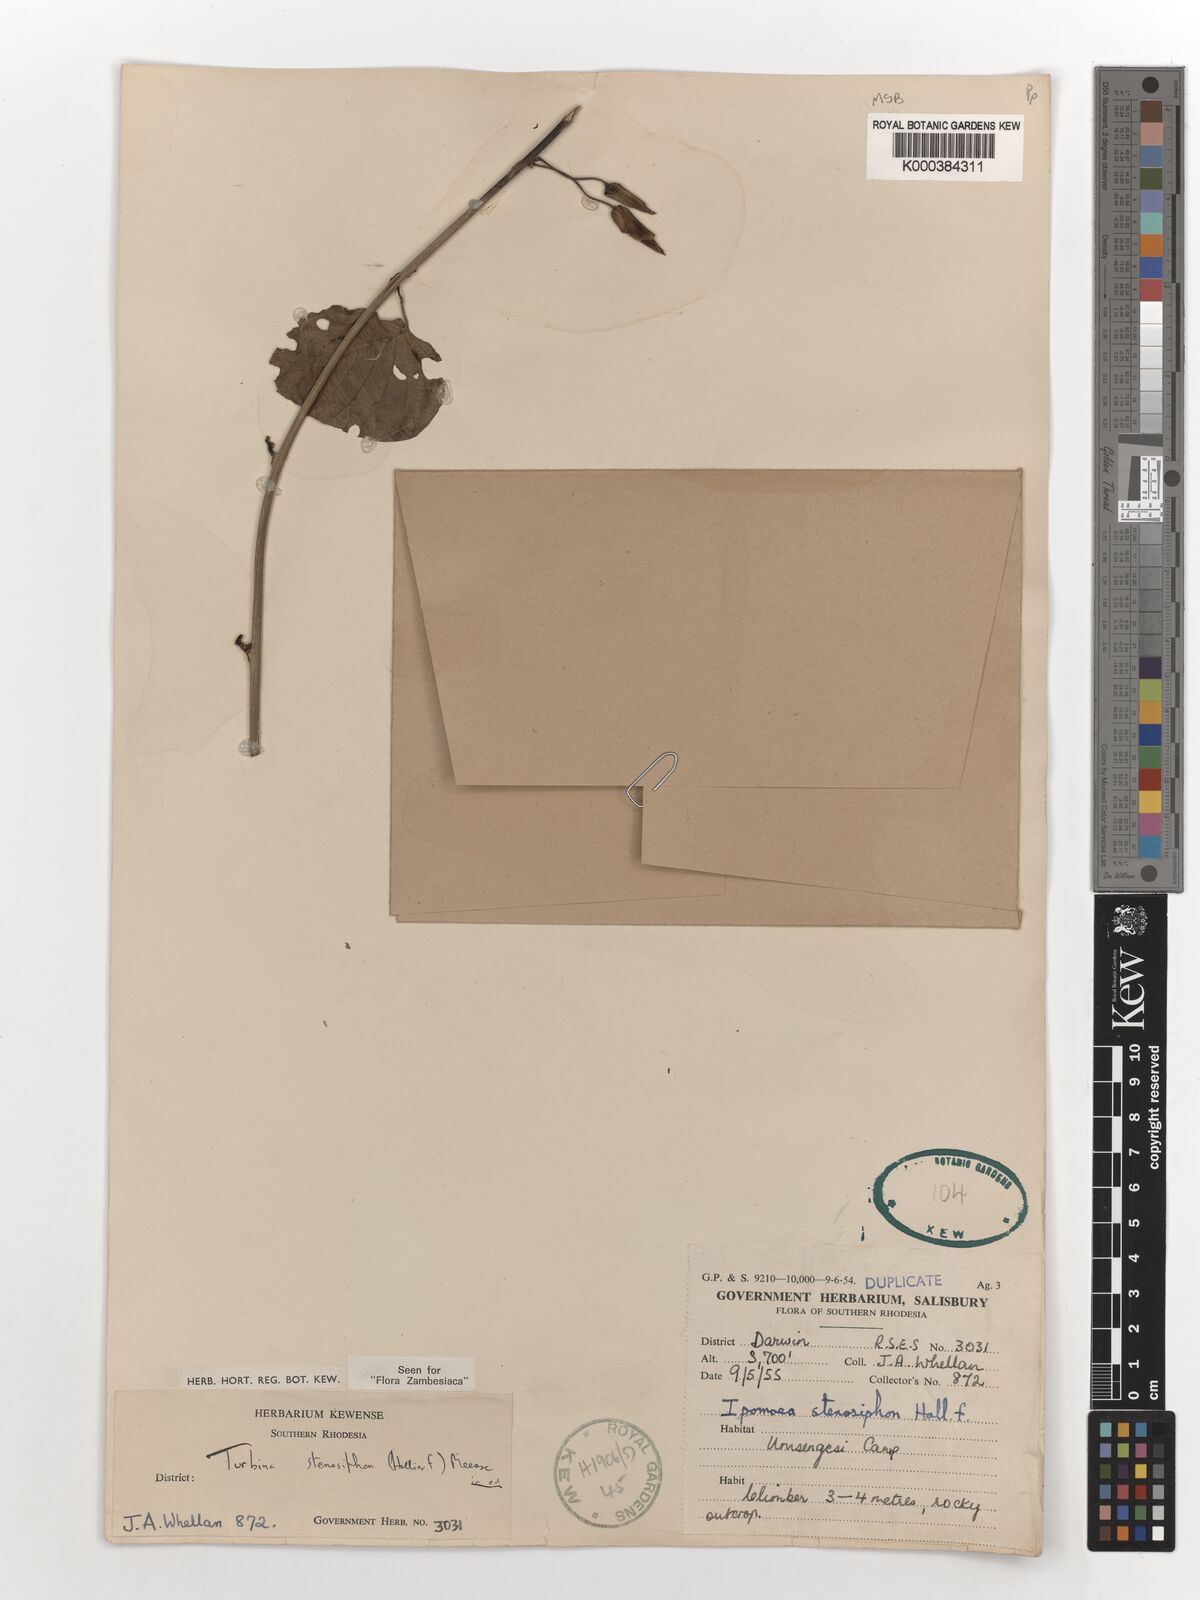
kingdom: Plantae
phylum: Tracheophyta
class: Magnoliopsida
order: Solanales
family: Convolvulaceae
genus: Ipomoea
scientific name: Ipomoea stenosiphon
